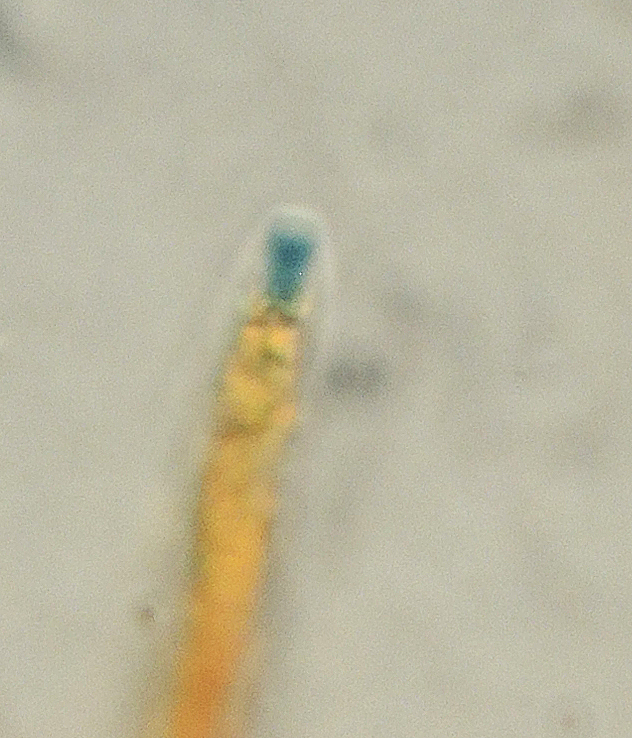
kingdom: Fungi
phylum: Ascomycota
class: Sordariomycetes
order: Xylariales
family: Xylariaceae
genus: Anthostomella
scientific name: Anthostomella arenaria
